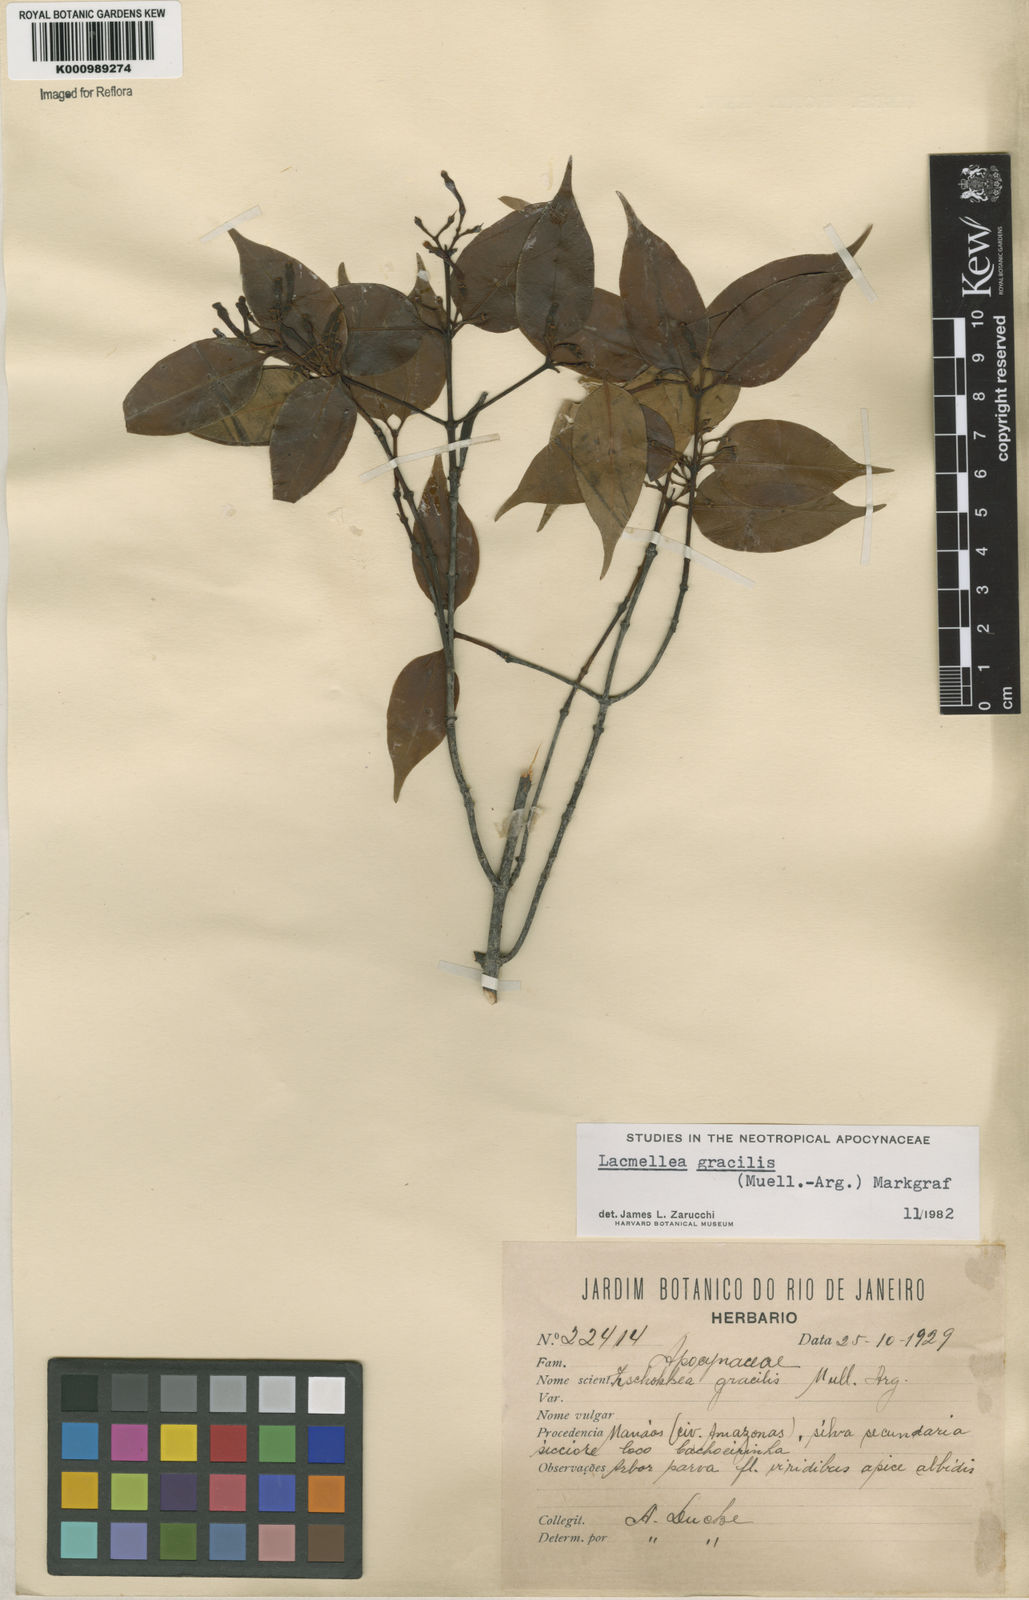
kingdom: Plantae
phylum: Tracheophyta
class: Magnoliopsida
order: Gentianales
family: Apocynaceae
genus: Lacmellea
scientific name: Lacmellea
